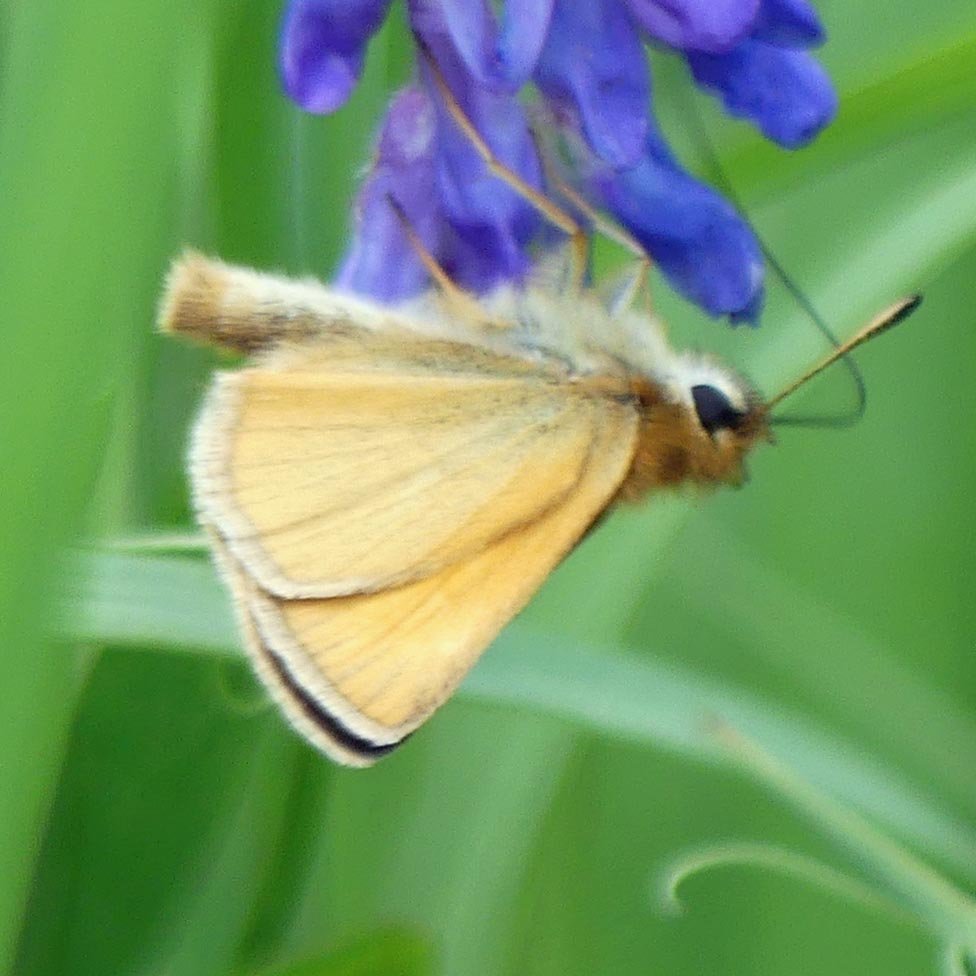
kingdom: Animalia
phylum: Arthropoda
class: Insecta
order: Lepidoptera
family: Hesperiidae
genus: Thymelicus
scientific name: Thymelicus lineola
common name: European Skipper
